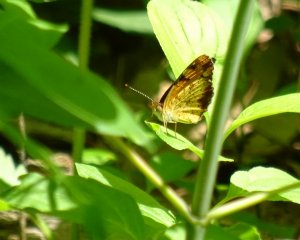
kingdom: Animalia
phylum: Arthropoda
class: Insecta
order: Lepidoptera
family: Nymphalidae
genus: Phyciodes
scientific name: Phyciodes tharos
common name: Northern Crescent
